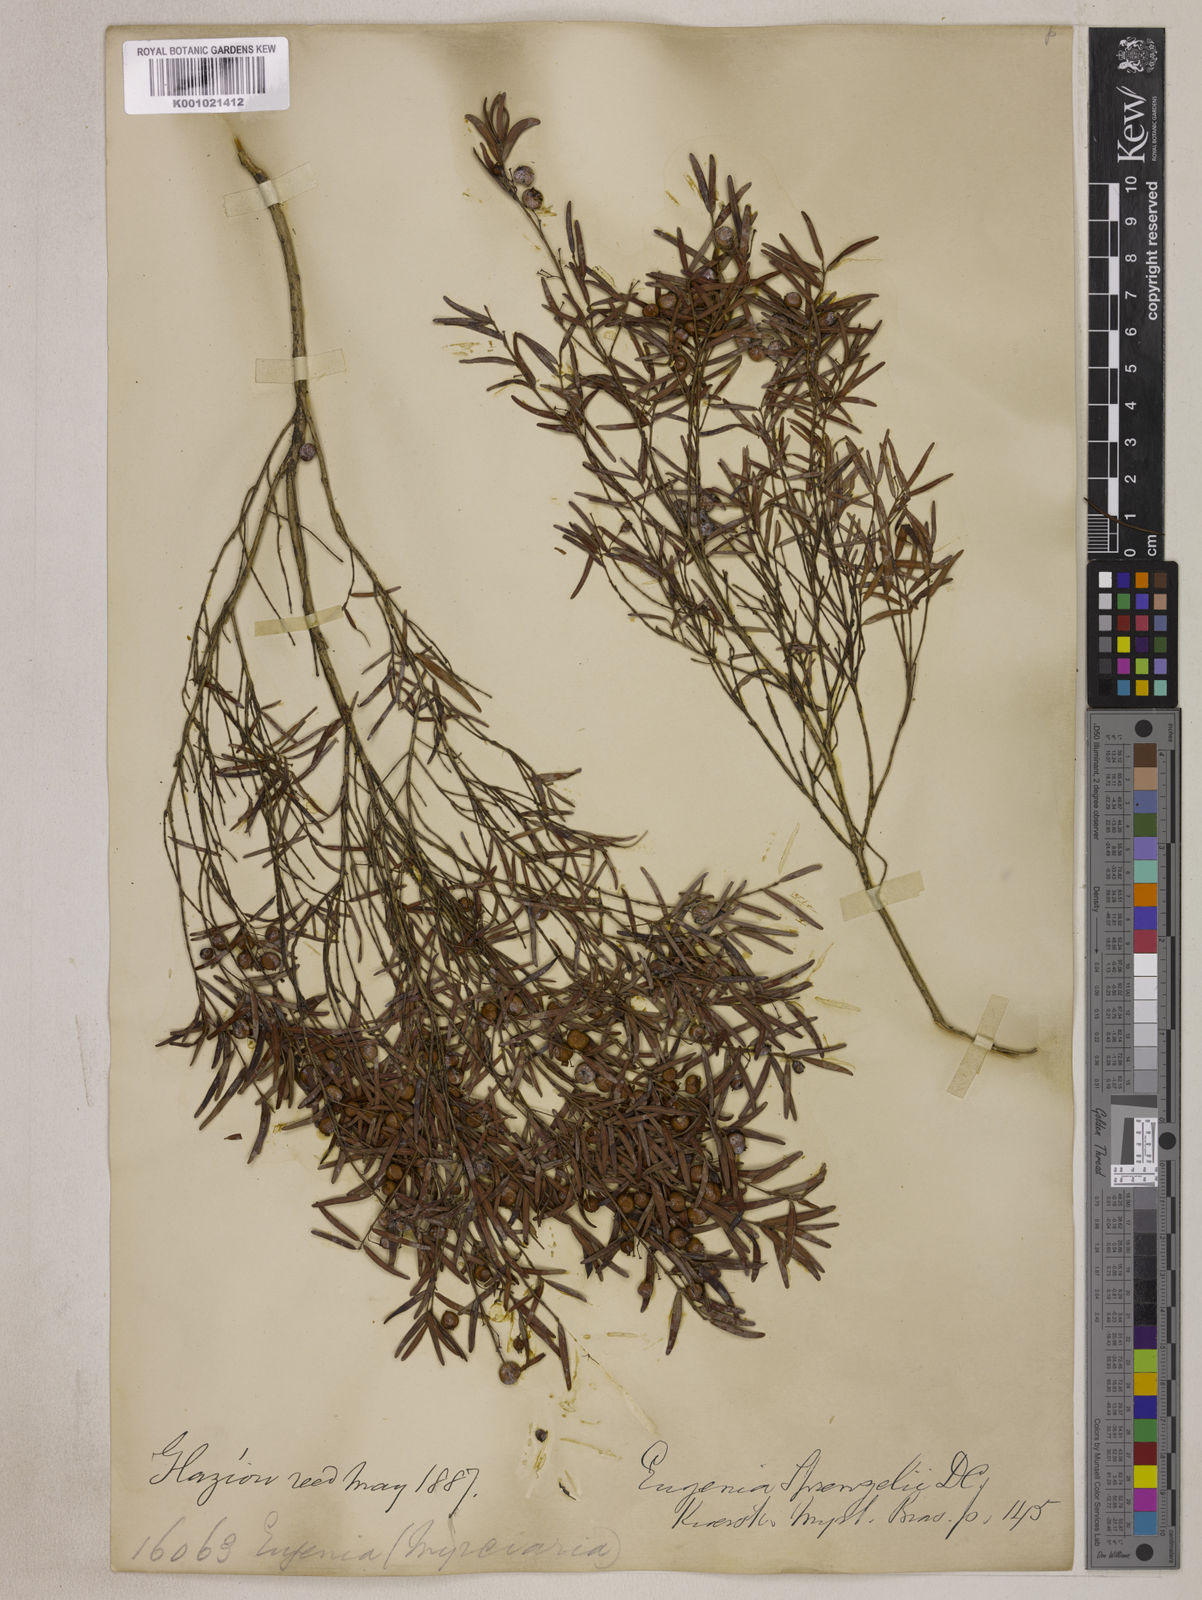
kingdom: Plantae
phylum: Tracheophyta
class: Magnoliopsida
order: Myrtales
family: Myrtaceae
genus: Eugenia
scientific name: Eugenia sprengelii
